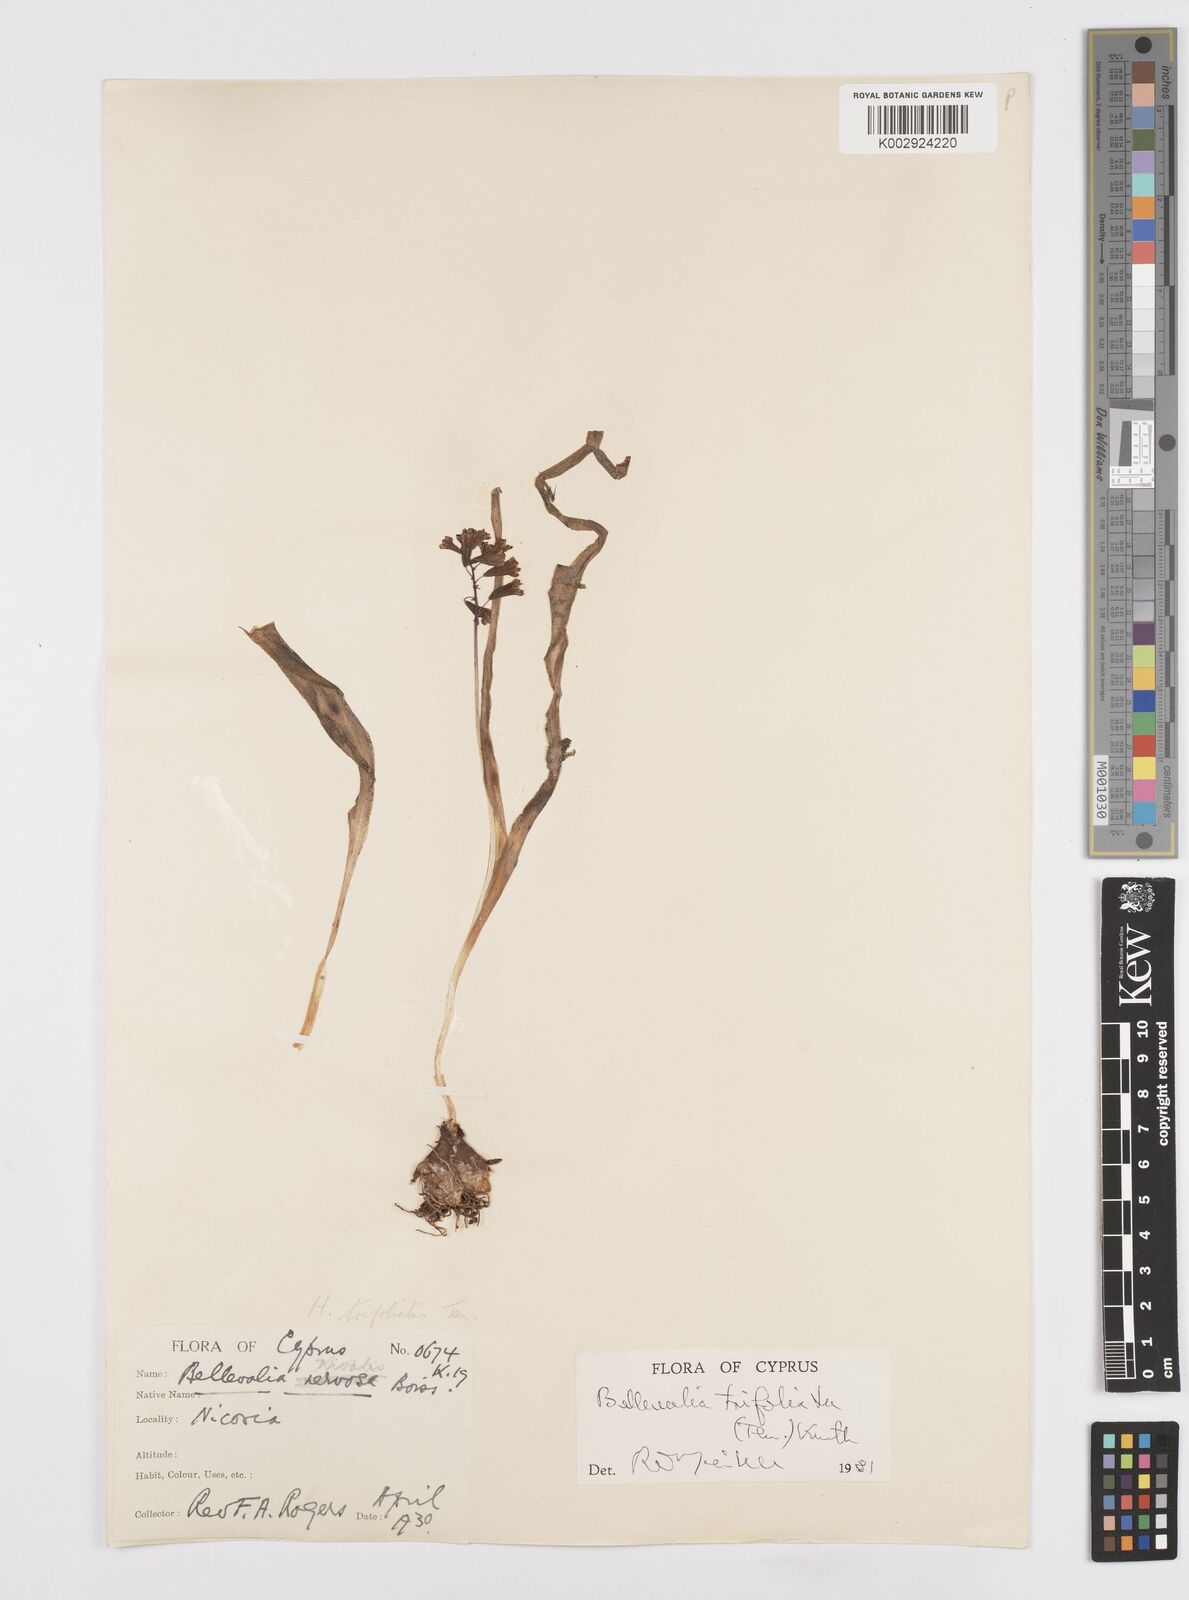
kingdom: Plantae
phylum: Tracheophyta
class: Liliopsida
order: Asparagales
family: Asparagaceae
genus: Bellevalia
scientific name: Bellevalia trifoliata
